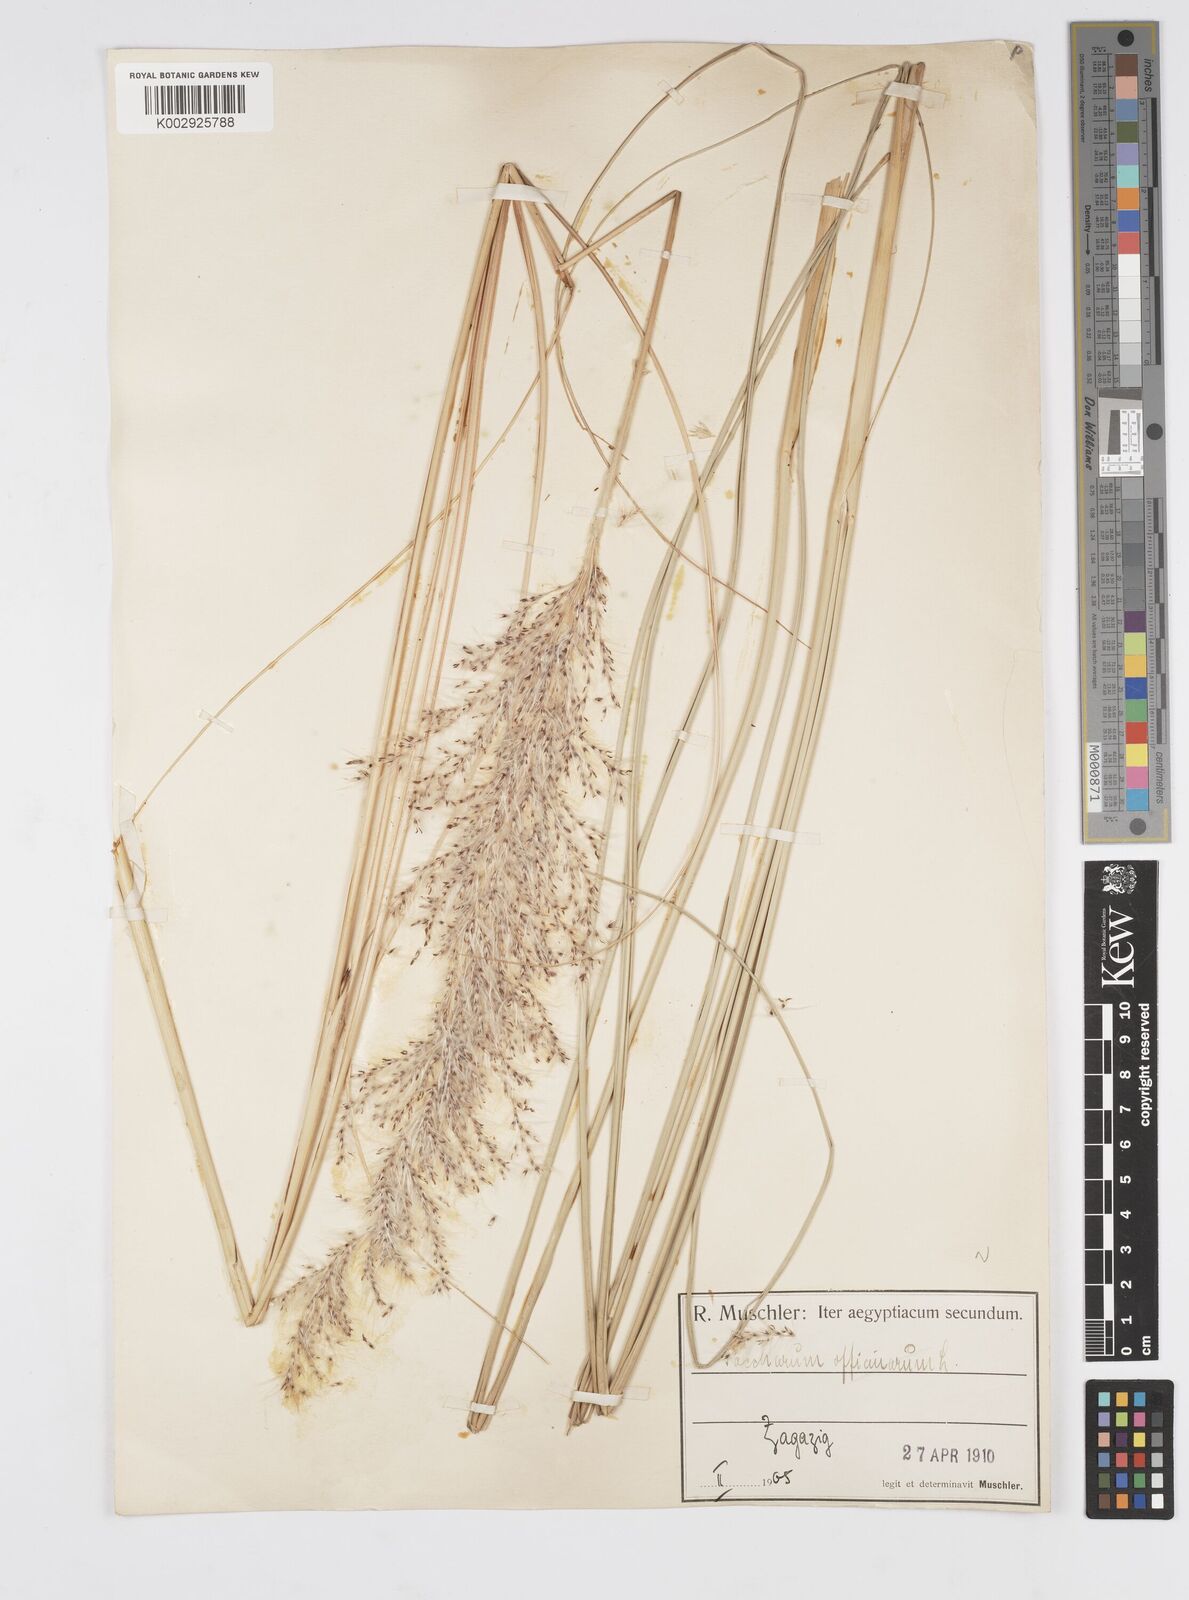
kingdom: Plantae
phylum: Tracheophyta
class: Liliopsida
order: Poales
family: Poaceae
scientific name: Poaceae
